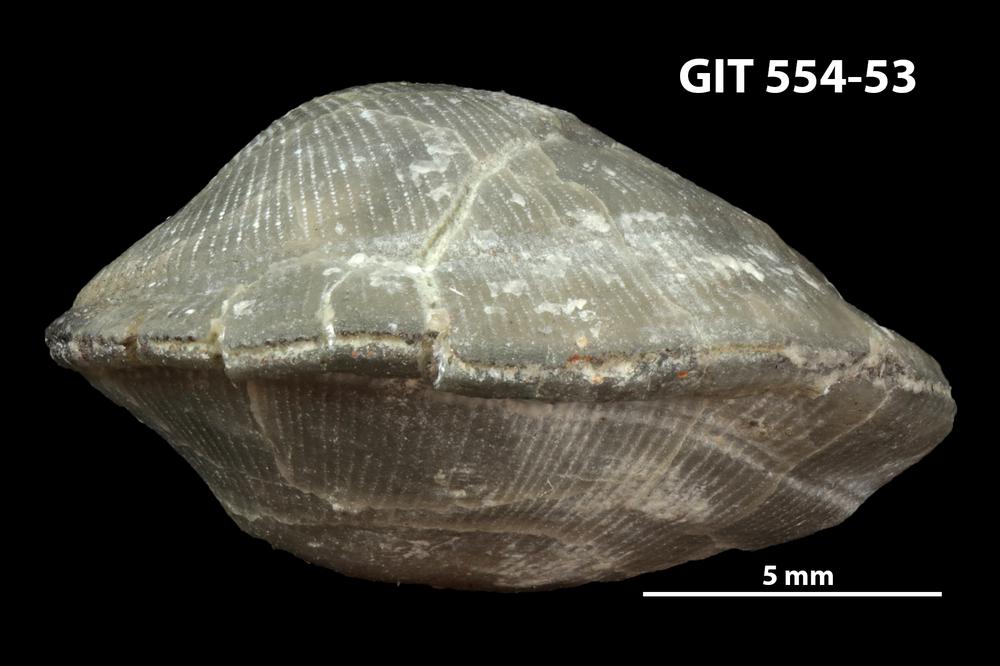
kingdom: Animalia
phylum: Brachiopoda
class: Rhynchonellata
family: Linoporellidae
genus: Linoporella
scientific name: Linoporella Orthis punctata
